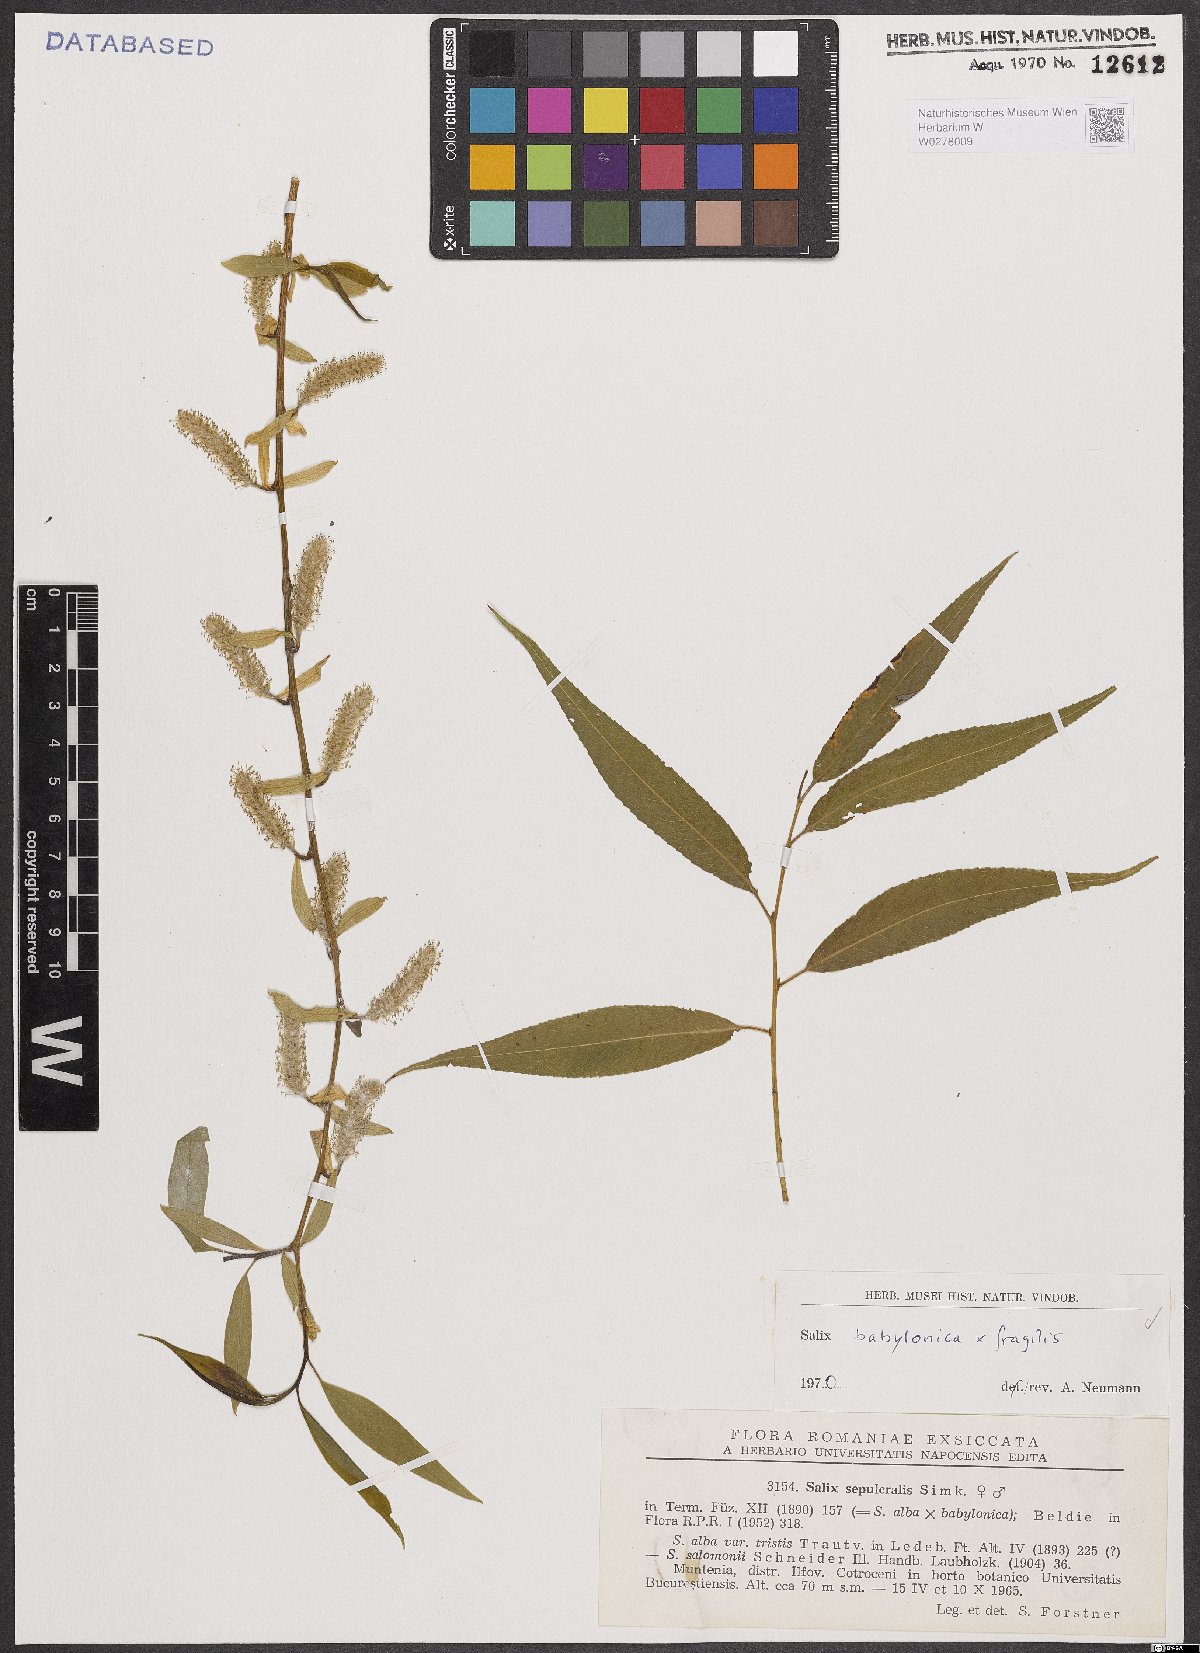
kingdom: Plantae
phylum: Tracheophyta
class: Magnoliopsida
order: Malpighiales
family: Salicaceae
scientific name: Salicaceae
